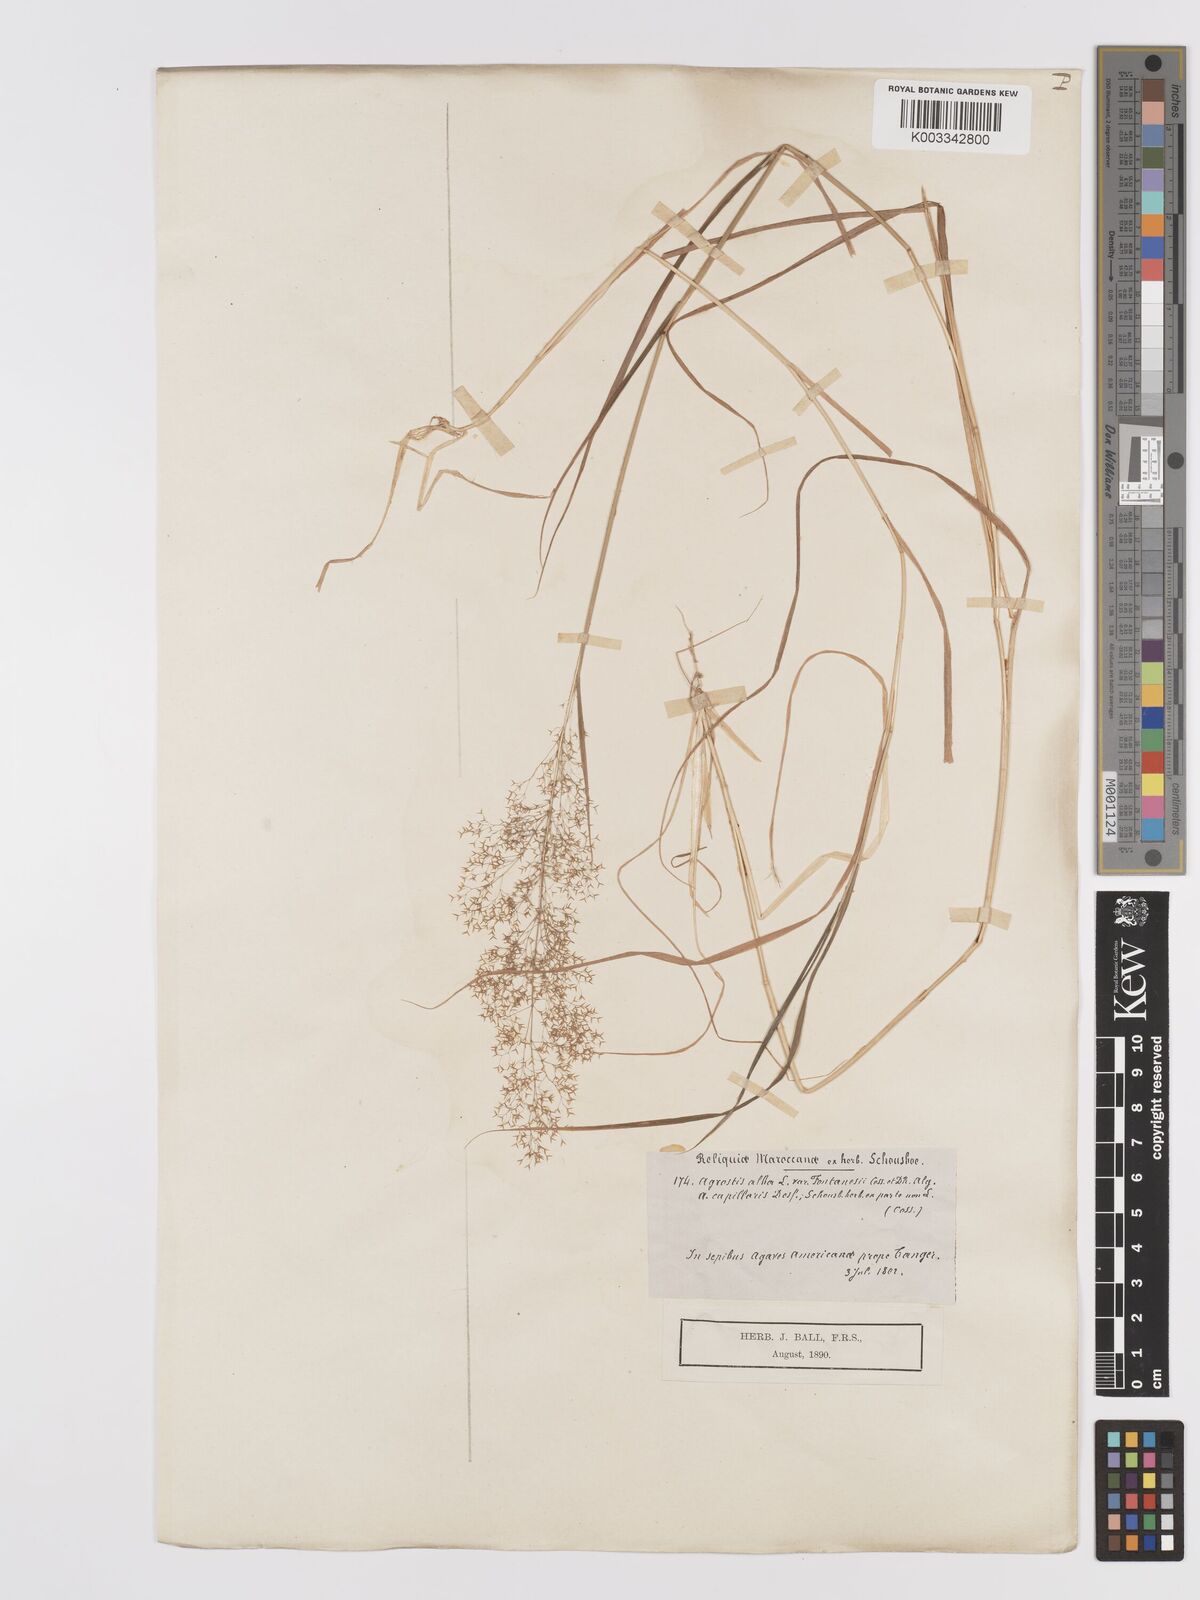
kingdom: Plantae
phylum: Tracheophyta
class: Liliopsida
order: Poales
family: Poaceae
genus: Agrostis
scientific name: Agrostis reuteri
